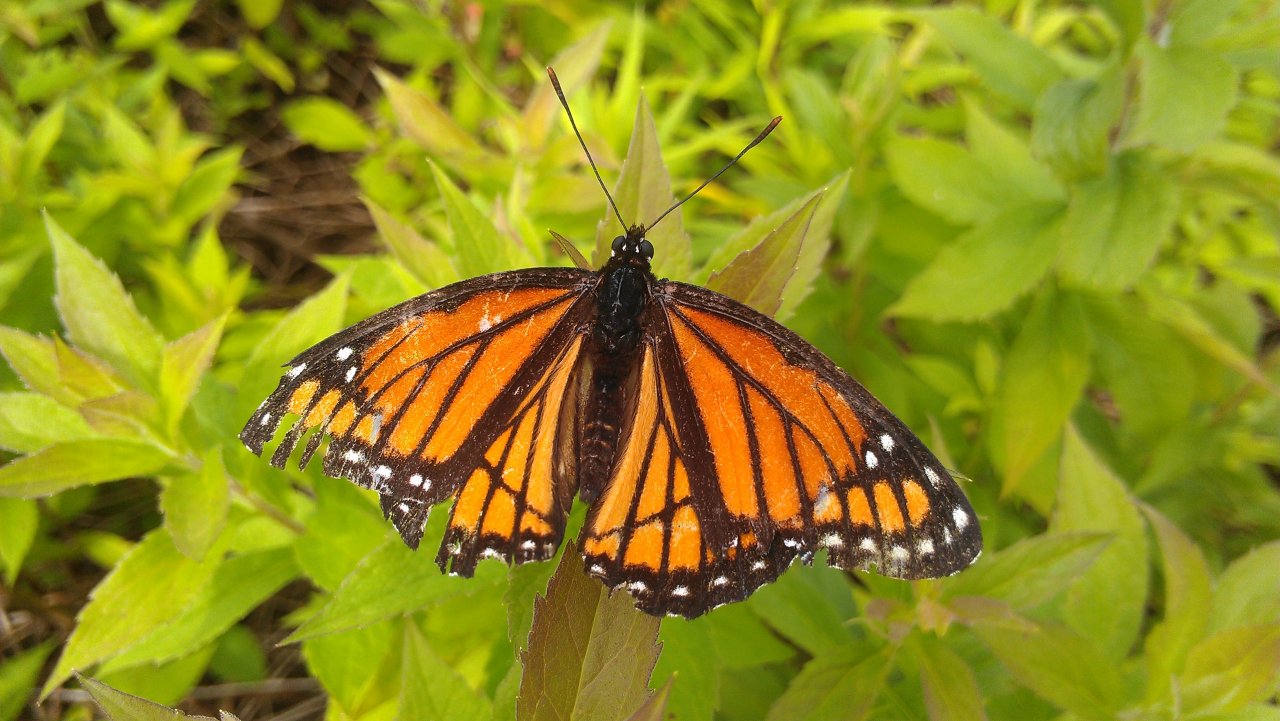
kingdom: Animalia
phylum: Arthropoda
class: Insecta
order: Lepidoptera
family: Nymphalidae
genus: Limenitis
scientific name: Limenitis archippus
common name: Viceroy
